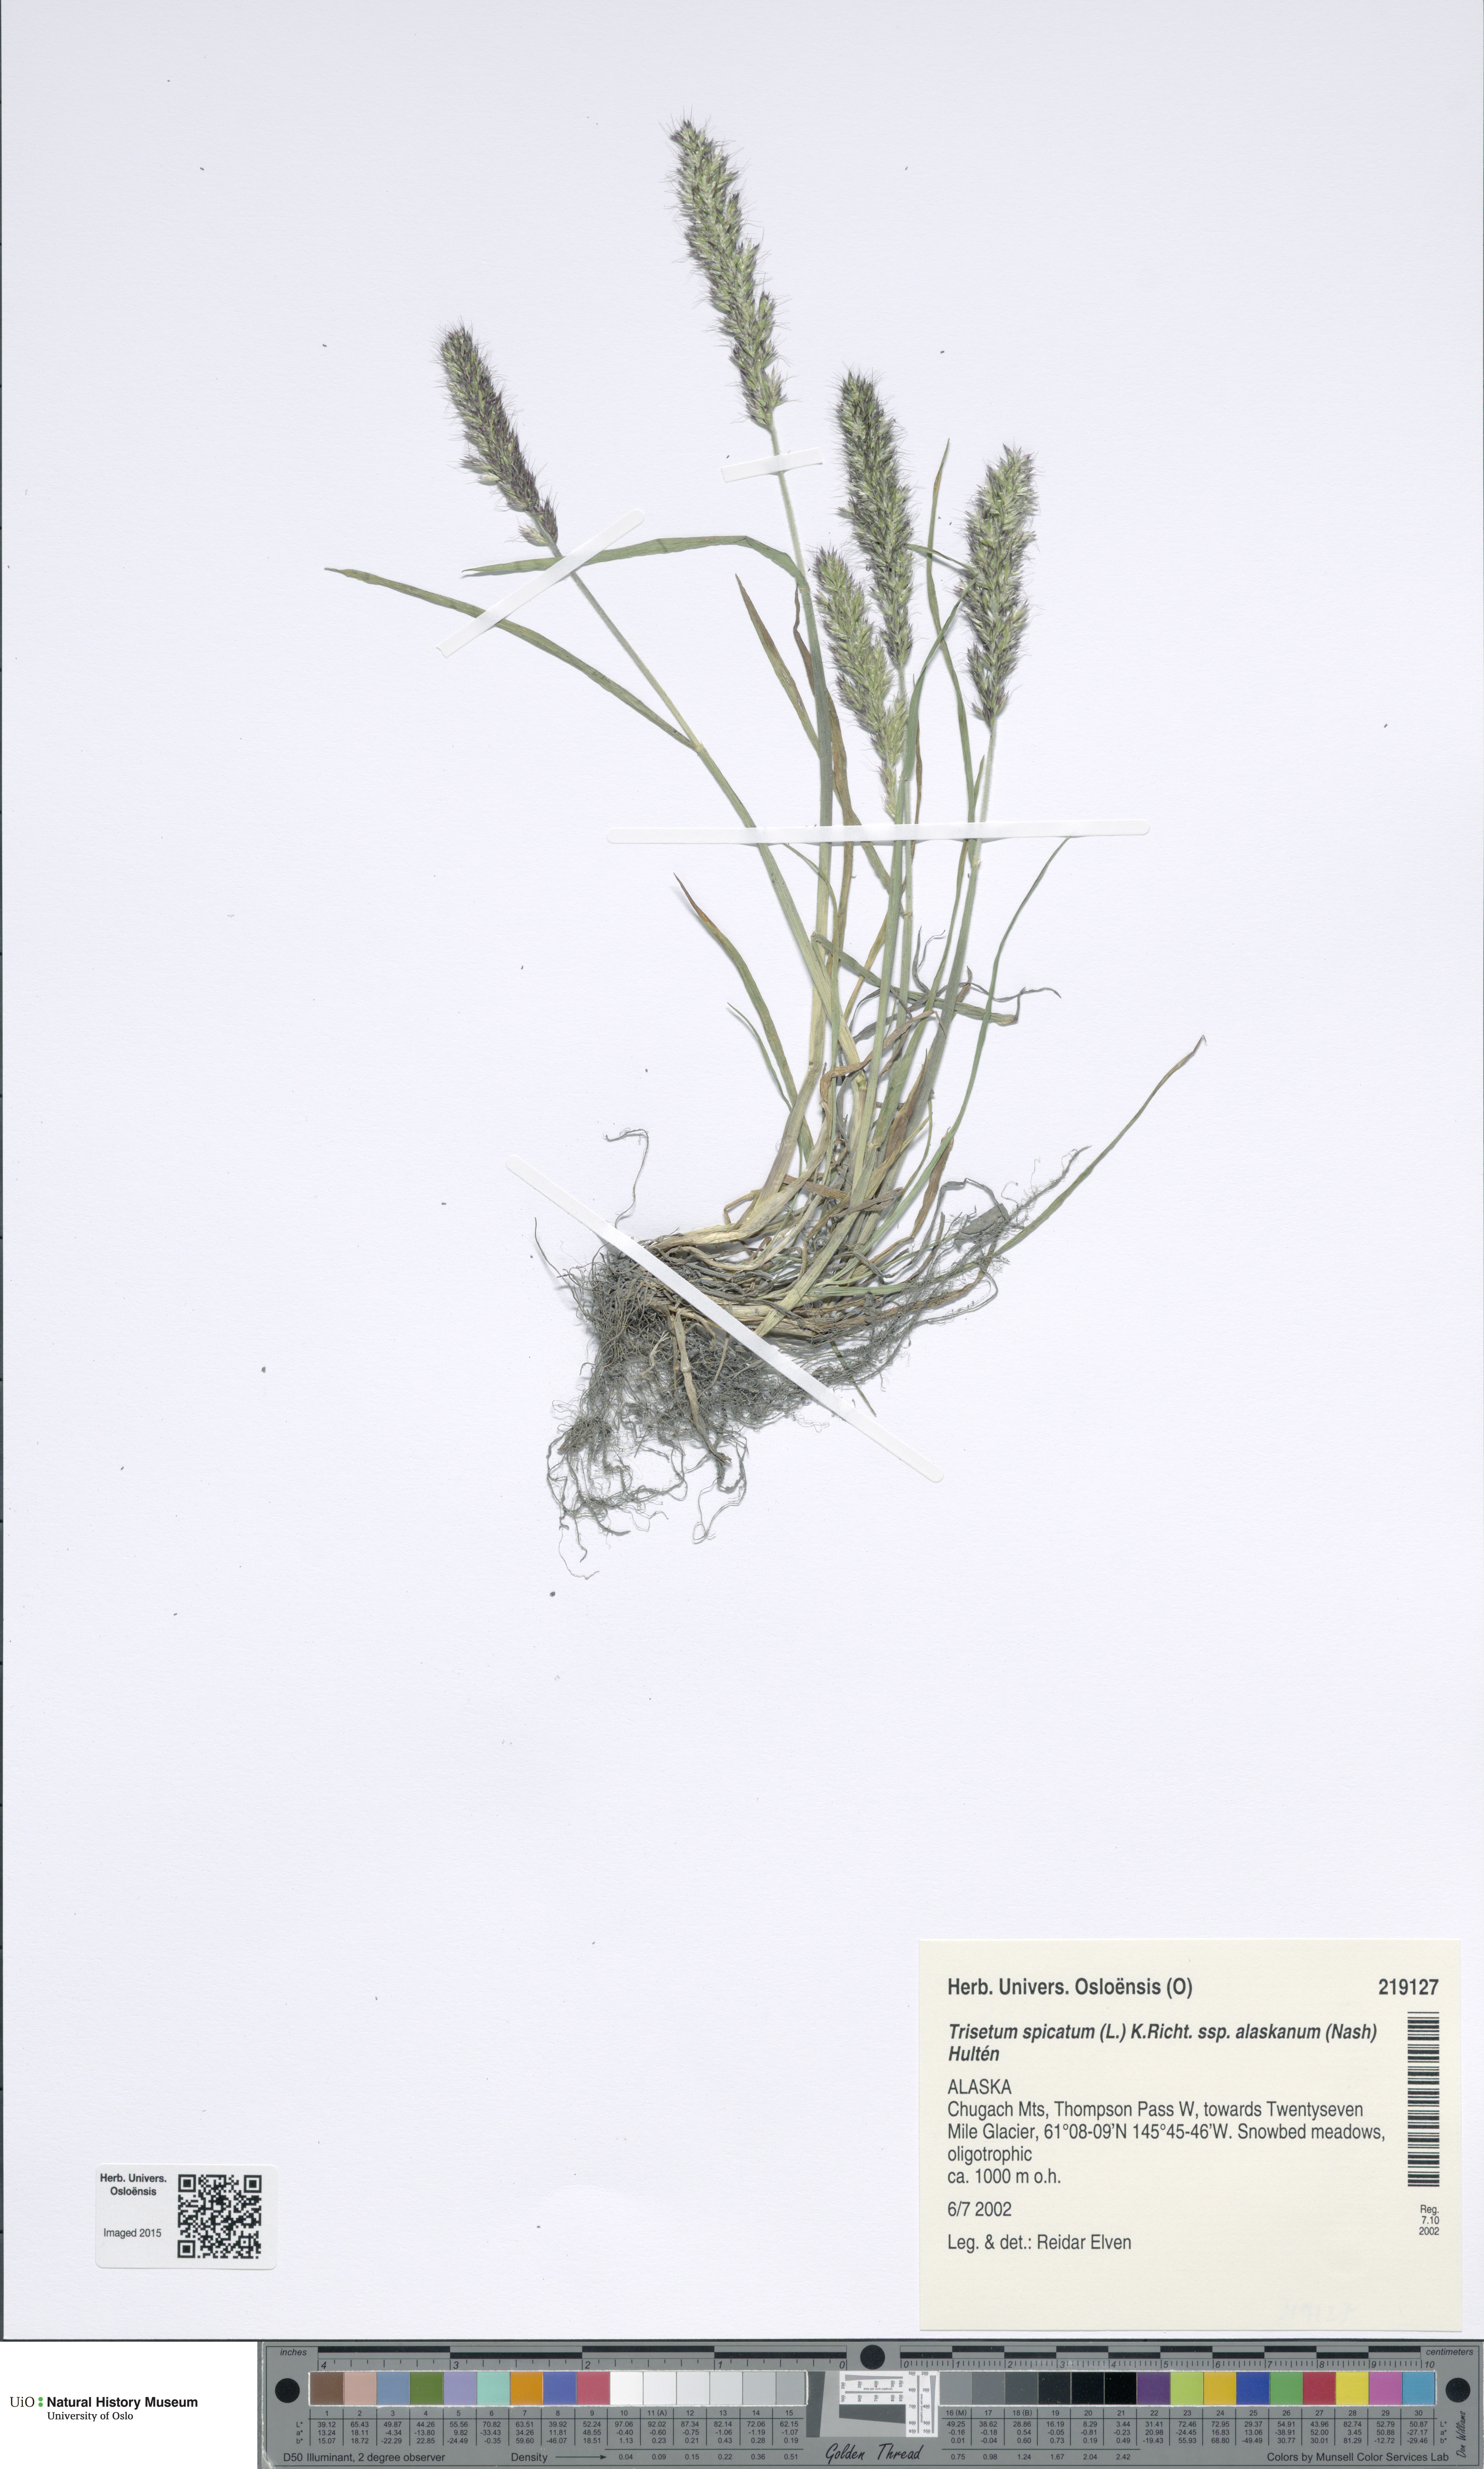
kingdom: Plantae
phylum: Tracheophyta
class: Liliopsida
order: Poales
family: Poaceae
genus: Koeleria
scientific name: Koeleria spicata
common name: Mountain trisetum
